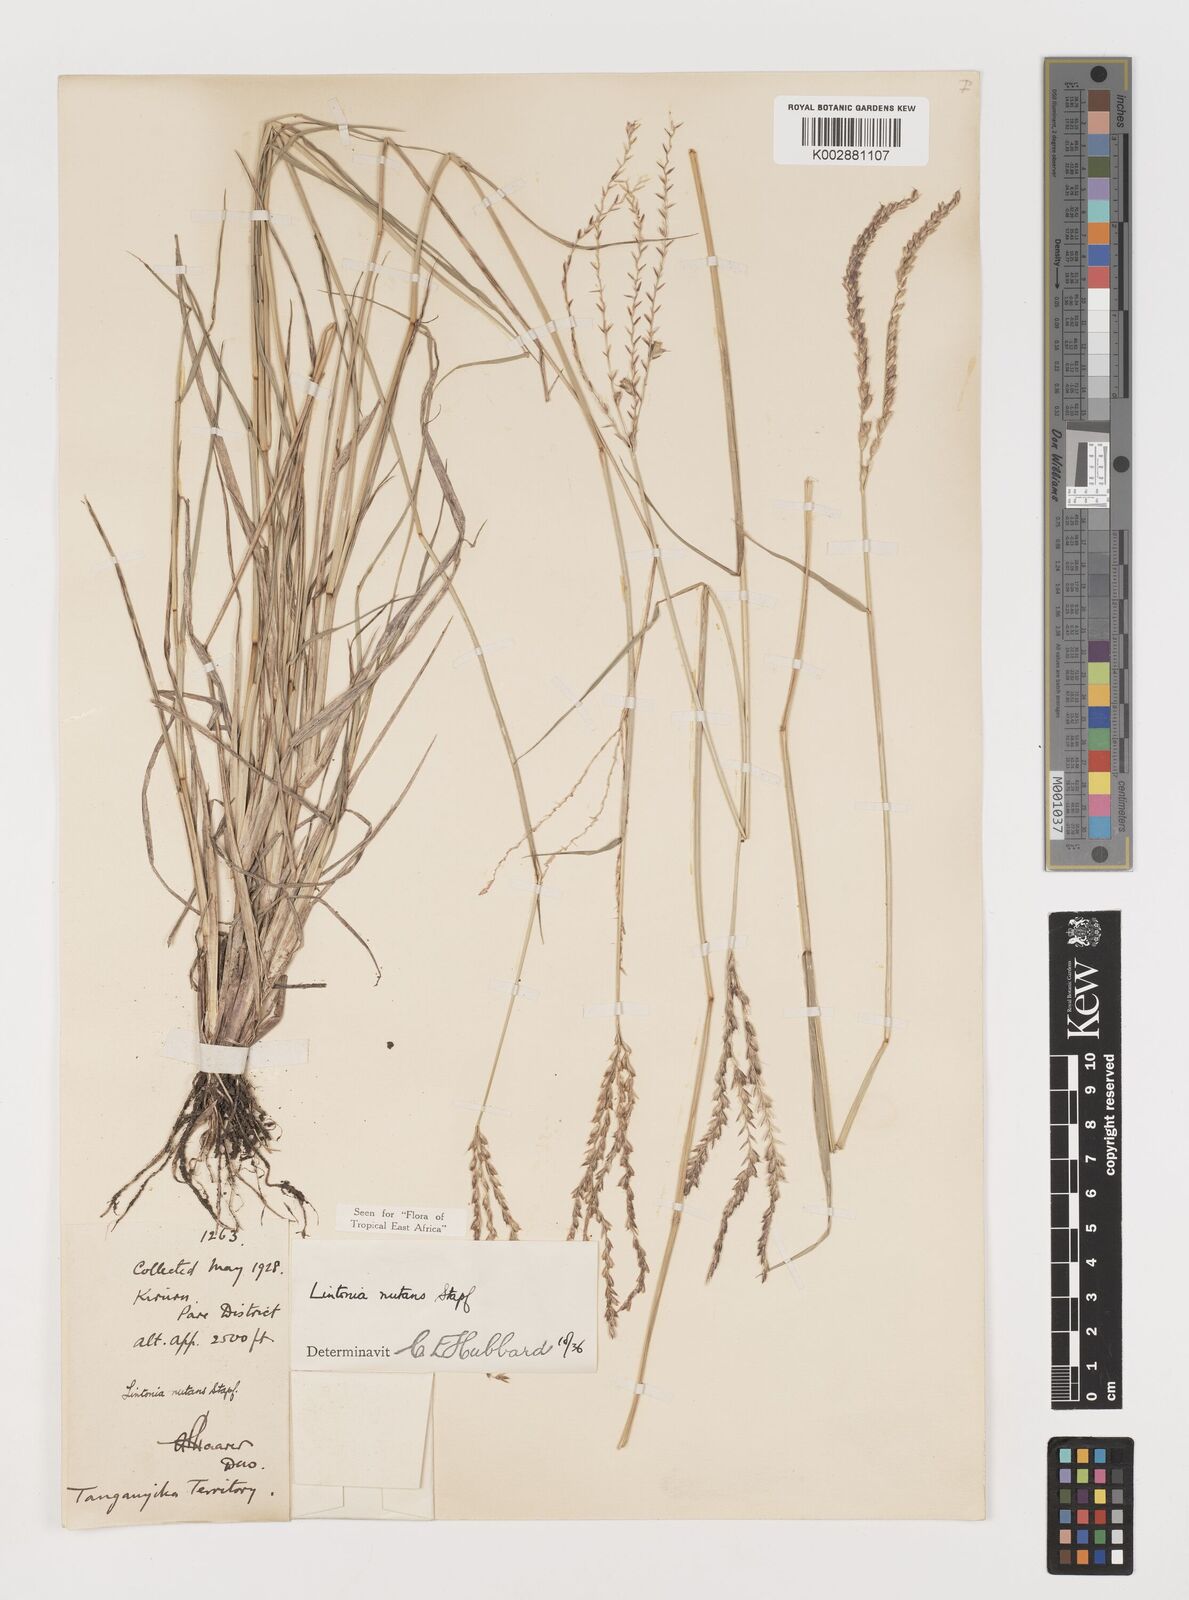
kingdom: Plantae
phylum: Tracheophyta
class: Liliopsida
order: Poales
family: Poaceae
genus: Chloris
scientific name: Chloris nutans
